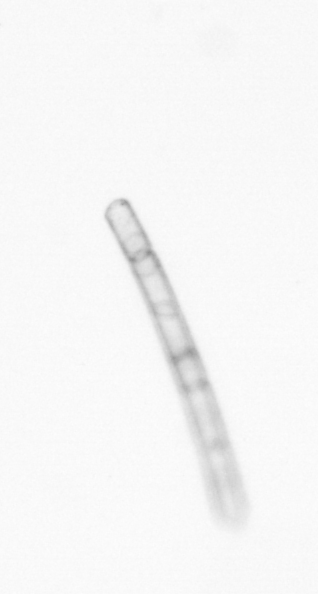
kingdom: Chromista
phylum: Ochrophyta
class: Bacillariophyceae
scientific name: Bacillariophyceae
